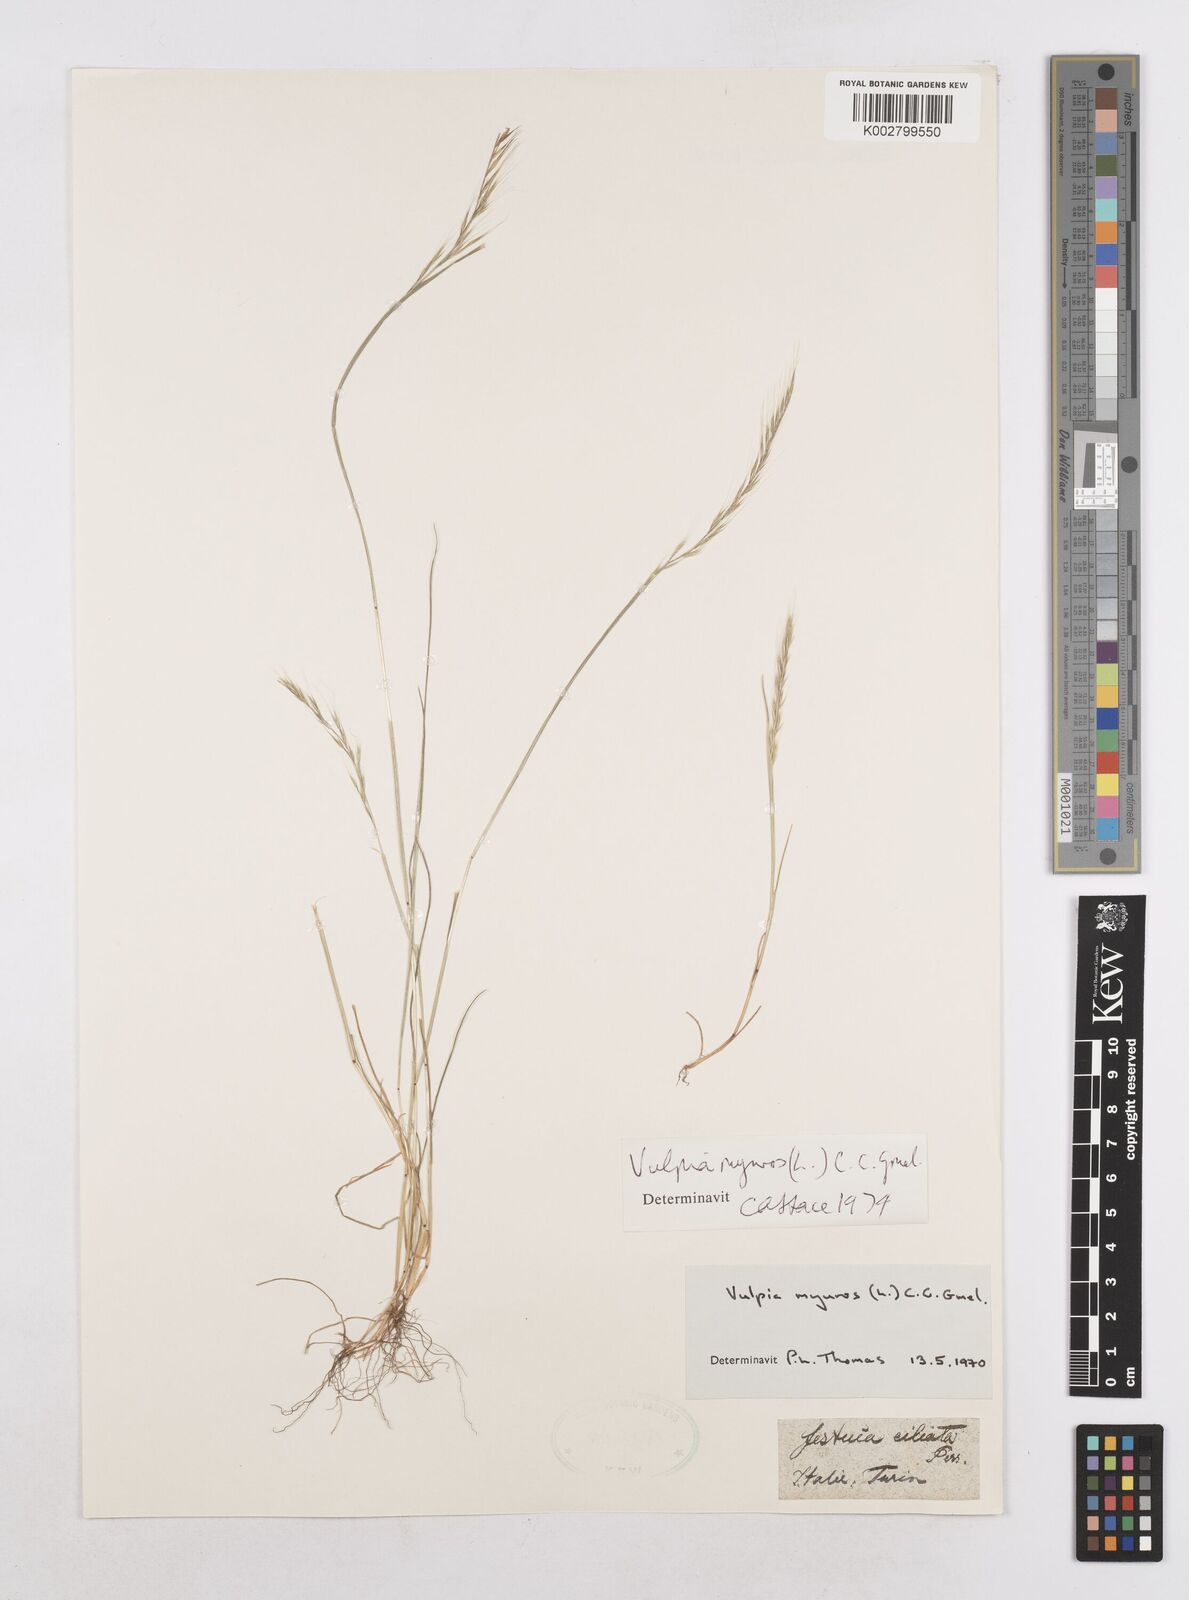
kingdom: Plantae
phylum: Tracheophyta
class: Liliopsida
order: Poales
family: Poaceae
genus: Festuca
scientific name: Festuca myuros
